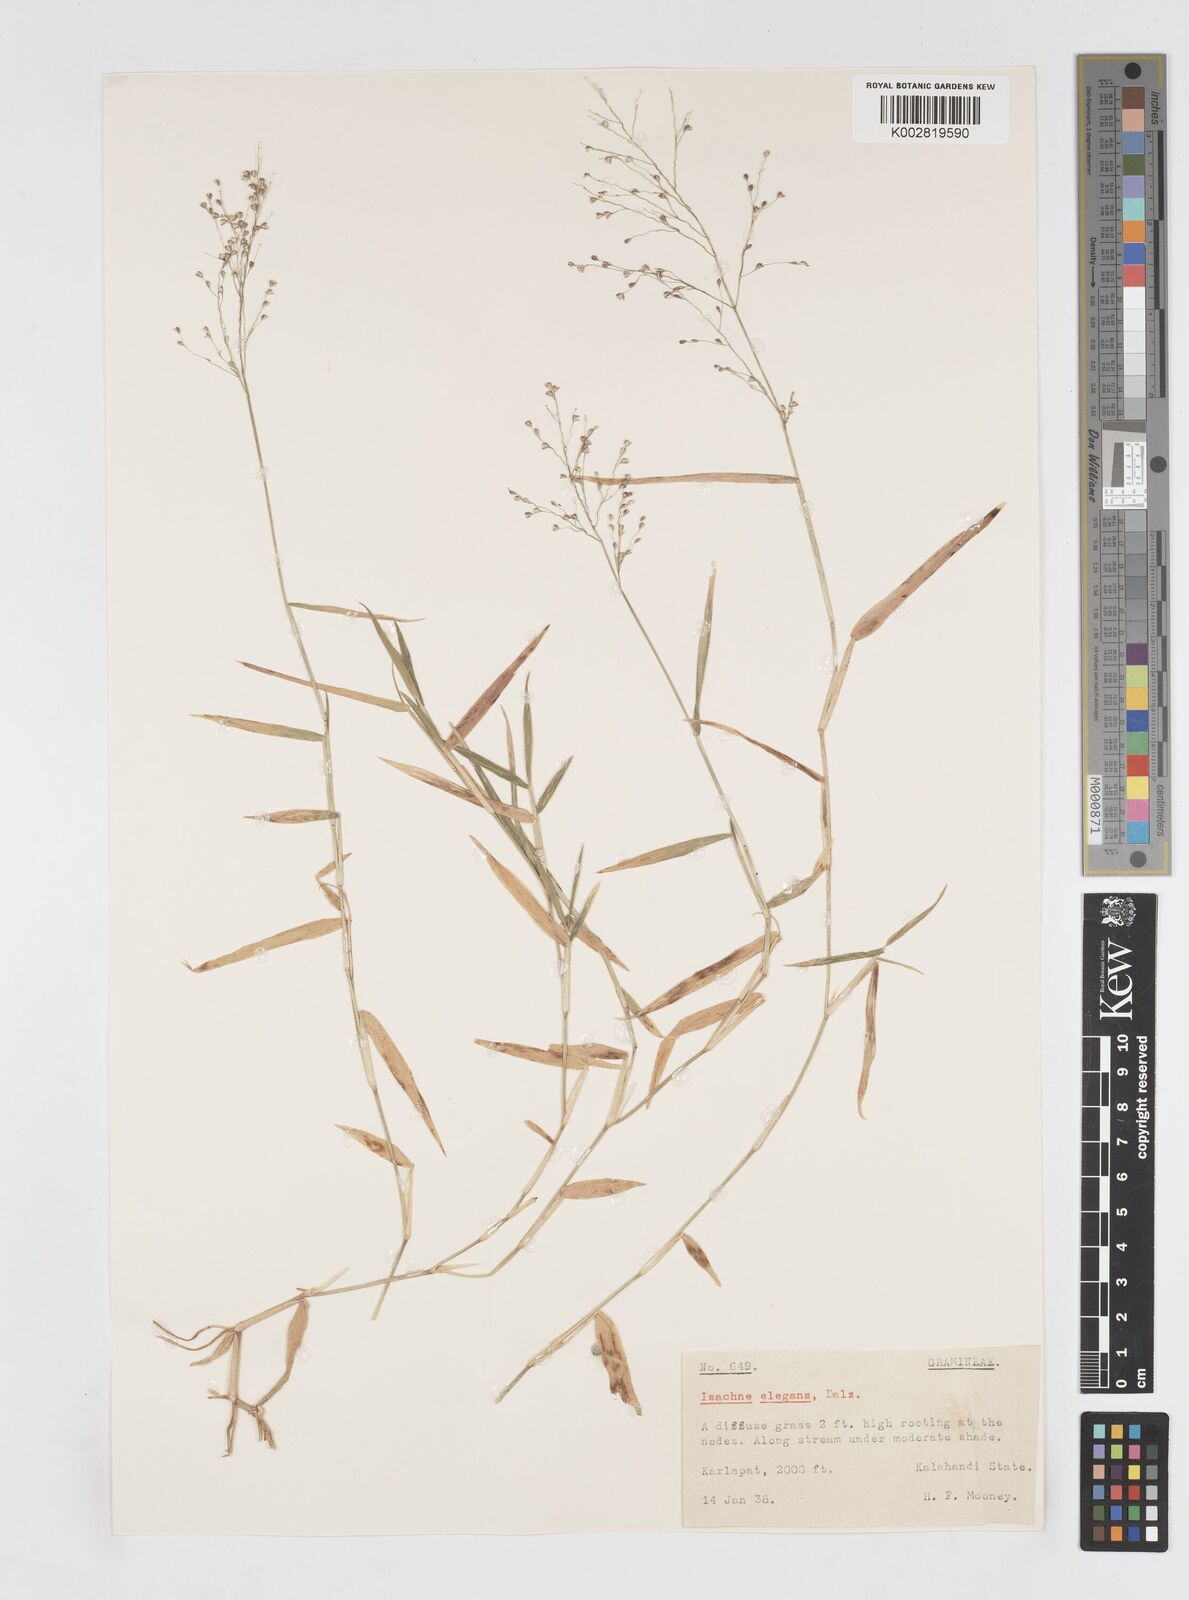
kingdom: Plantae
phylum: Tracheophyta
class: Liliopsida
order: Poales
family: Poaceae
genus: Isachne
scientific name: Isachne elegans
